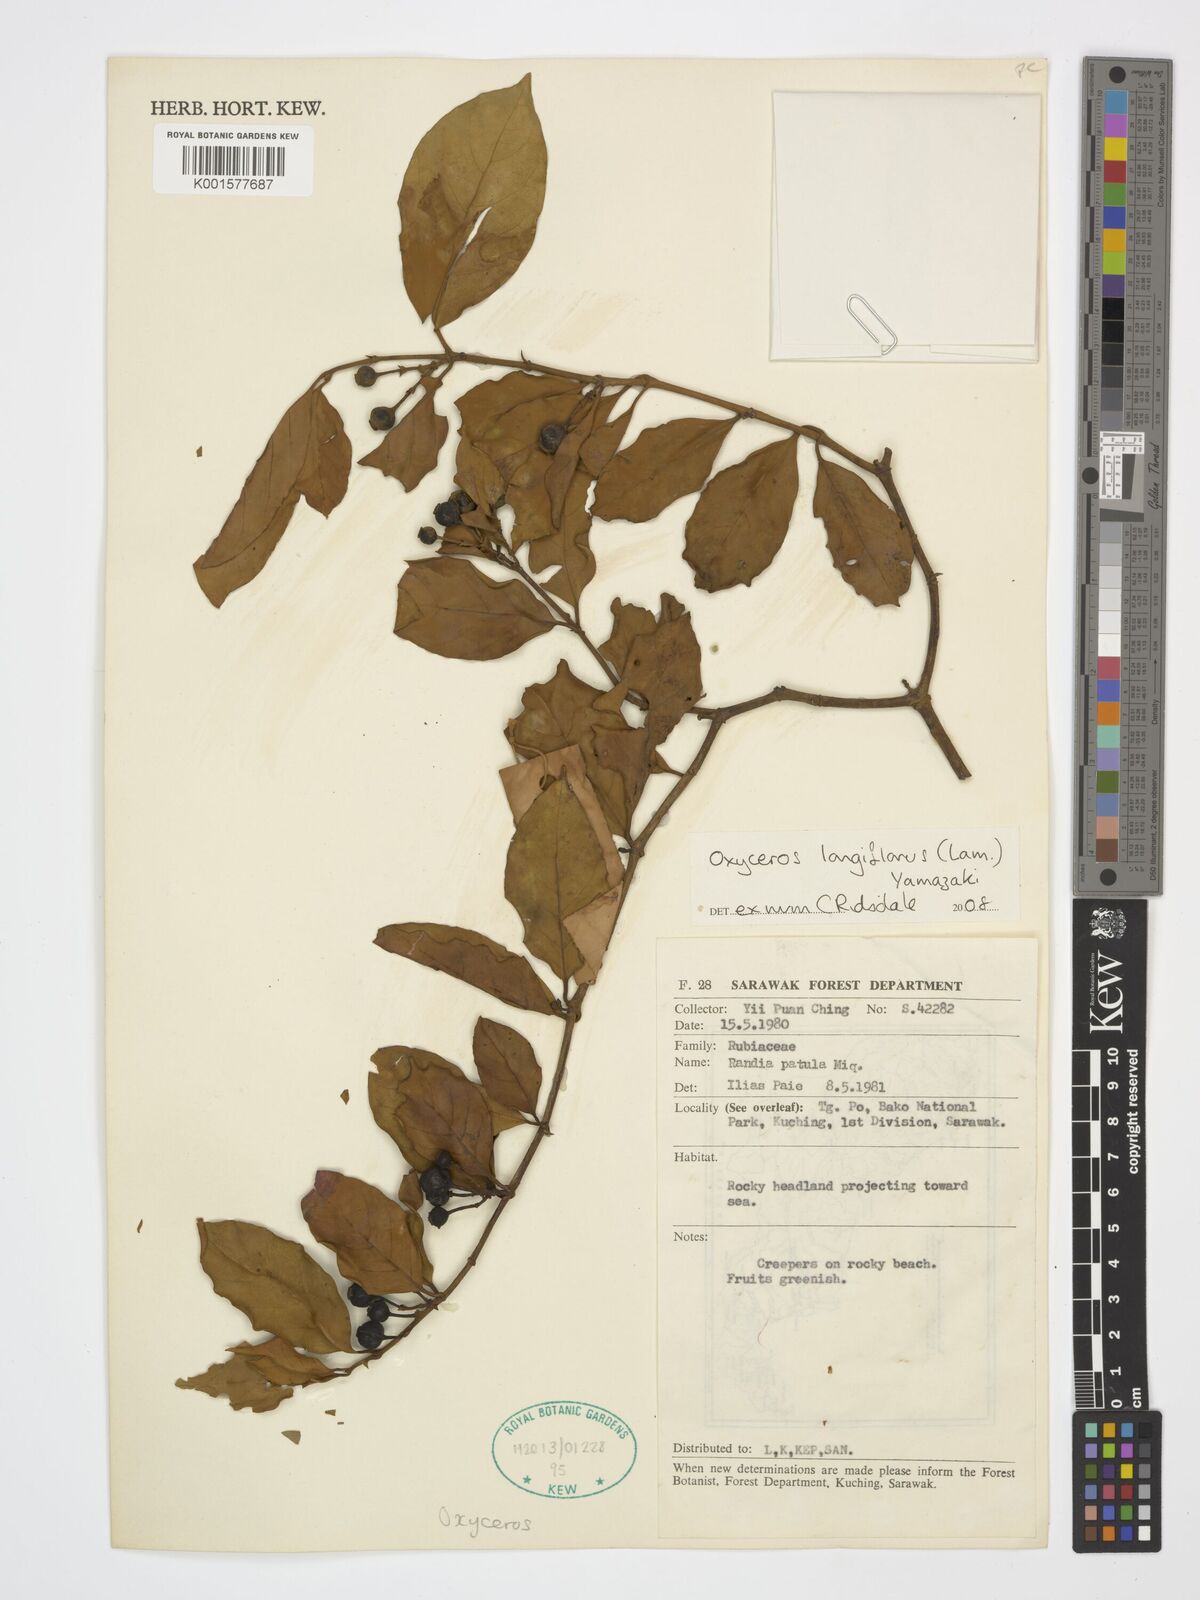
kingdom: Plantae
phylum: Tracheophyta
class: Magnoliopsida
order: Gentianales
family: Rubiaceae
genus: Oxyceros
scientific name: Oxyceros longiflorus
